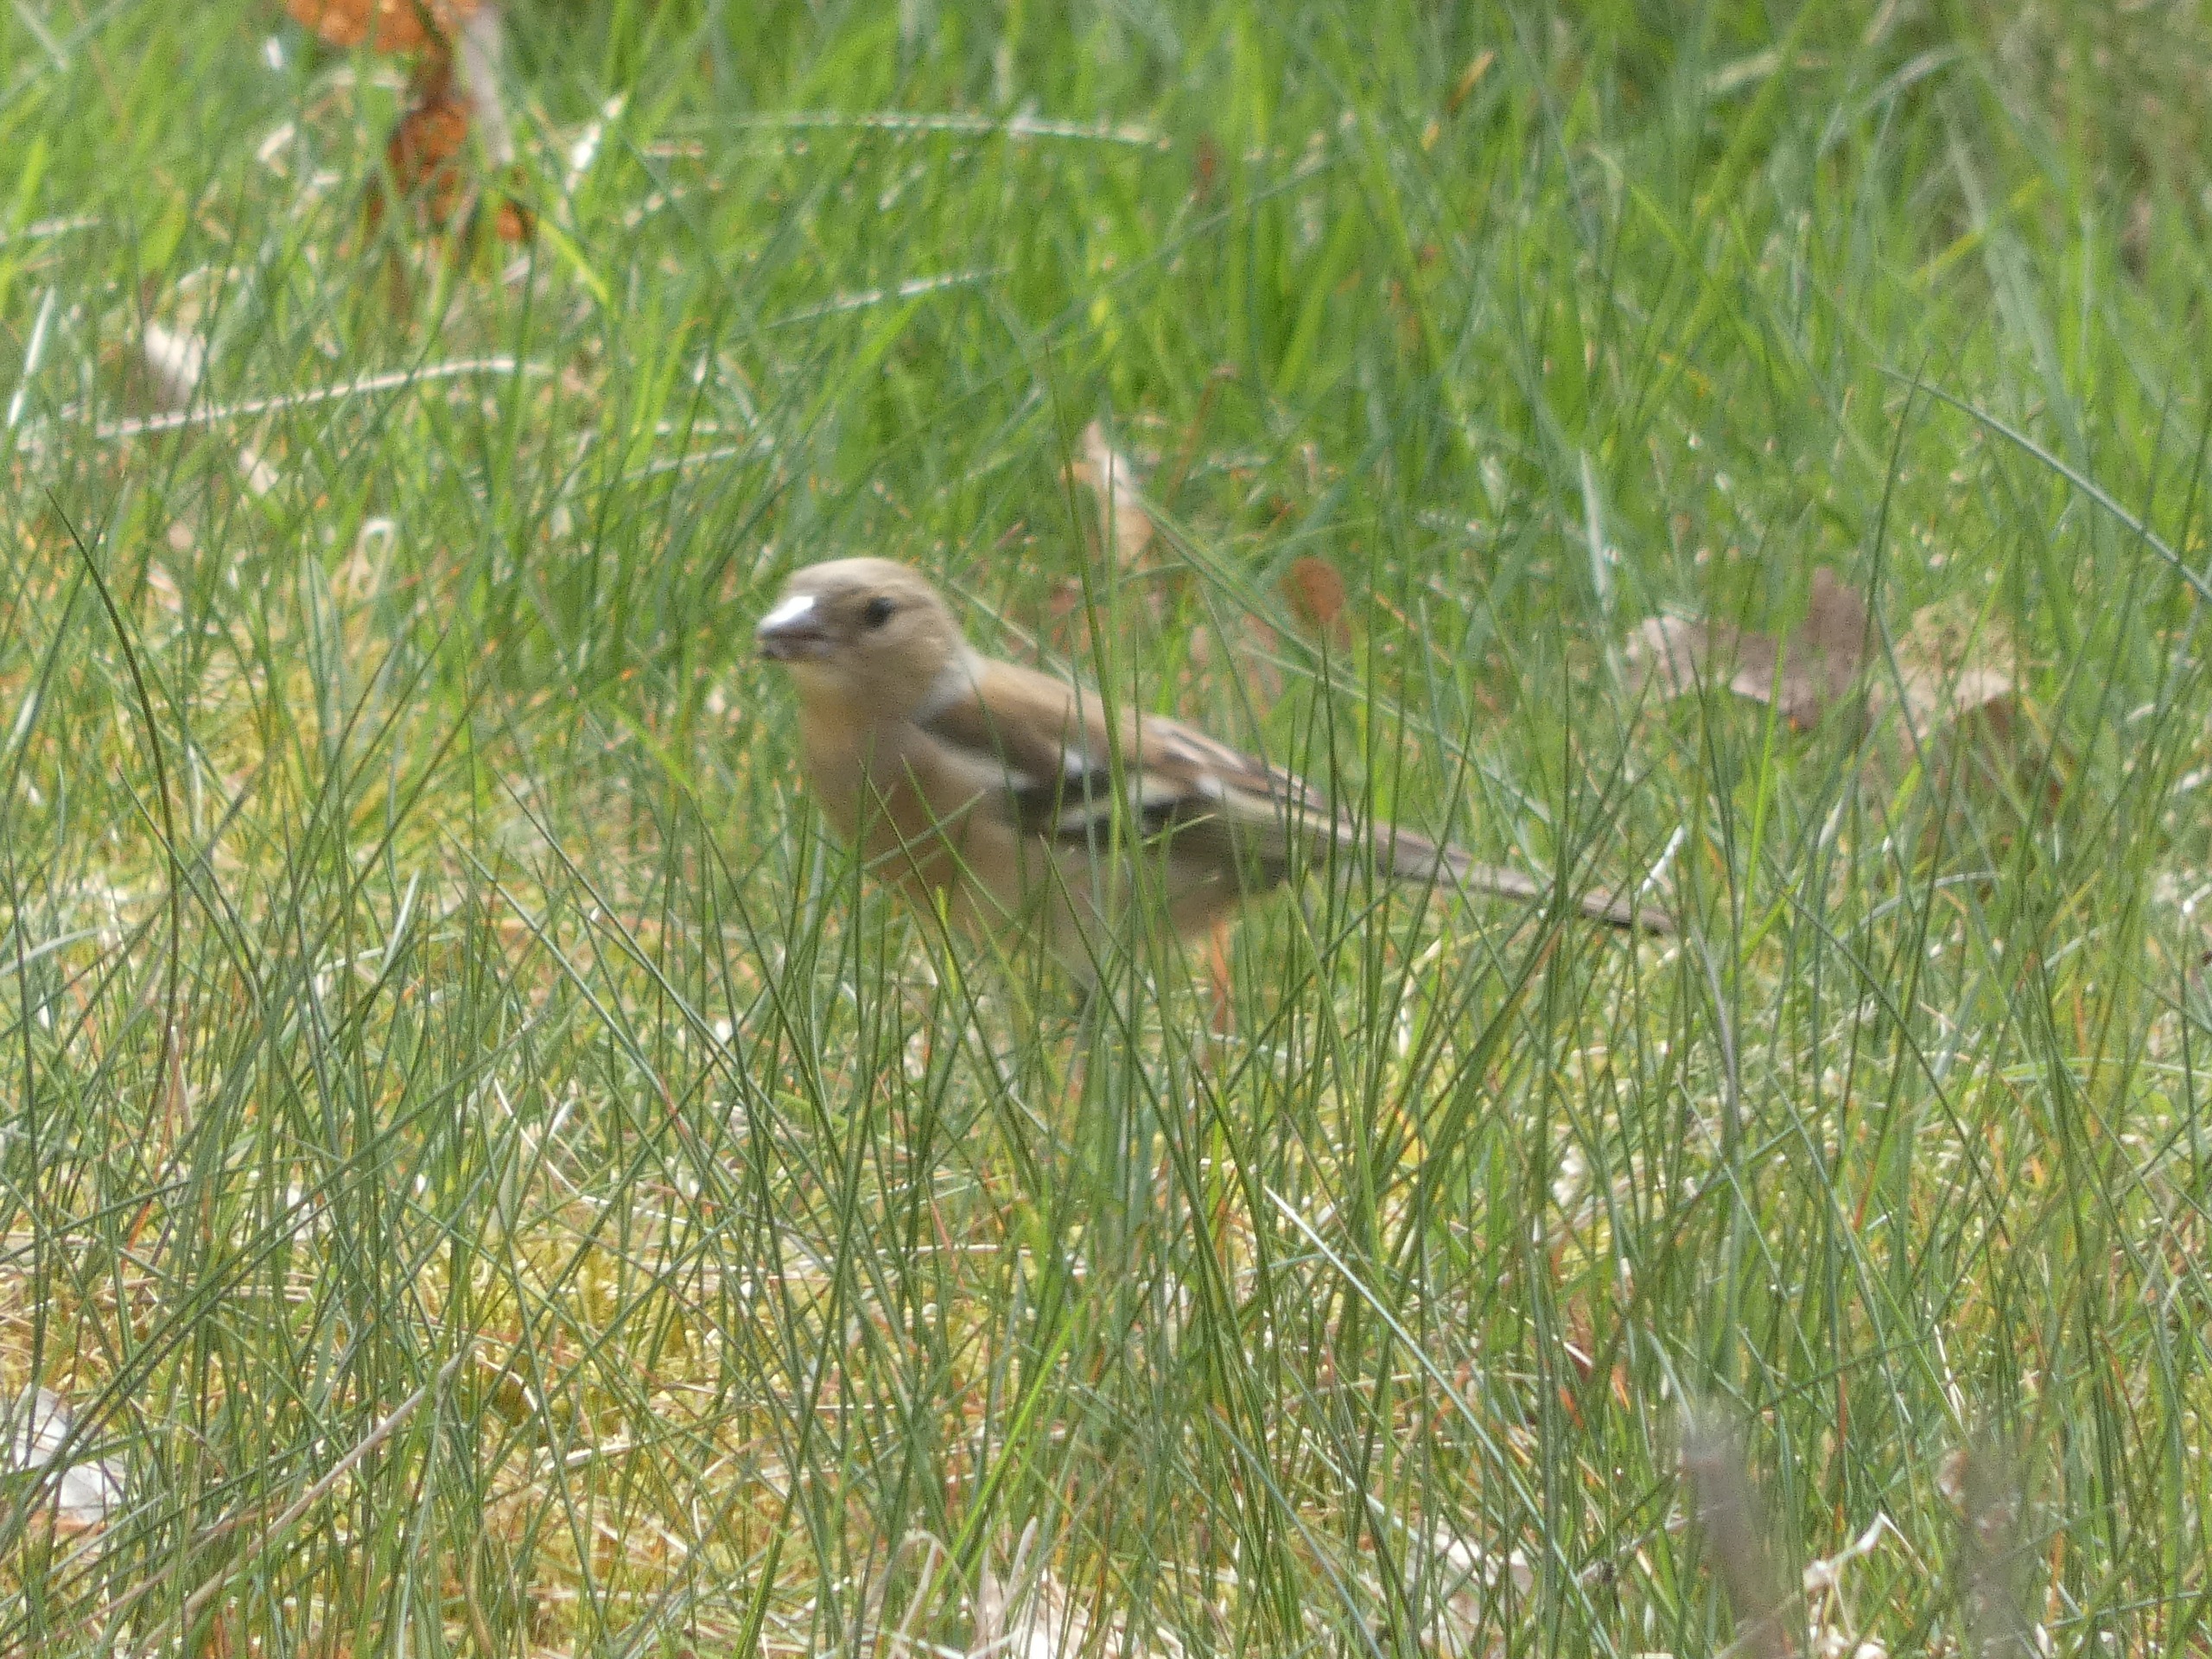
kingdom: Animalia
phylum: Chordata
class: Aves
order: Passeriformes
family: Fringillidae
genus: Fringilla
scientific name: Fringilla coelebs
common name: Bogfinke
